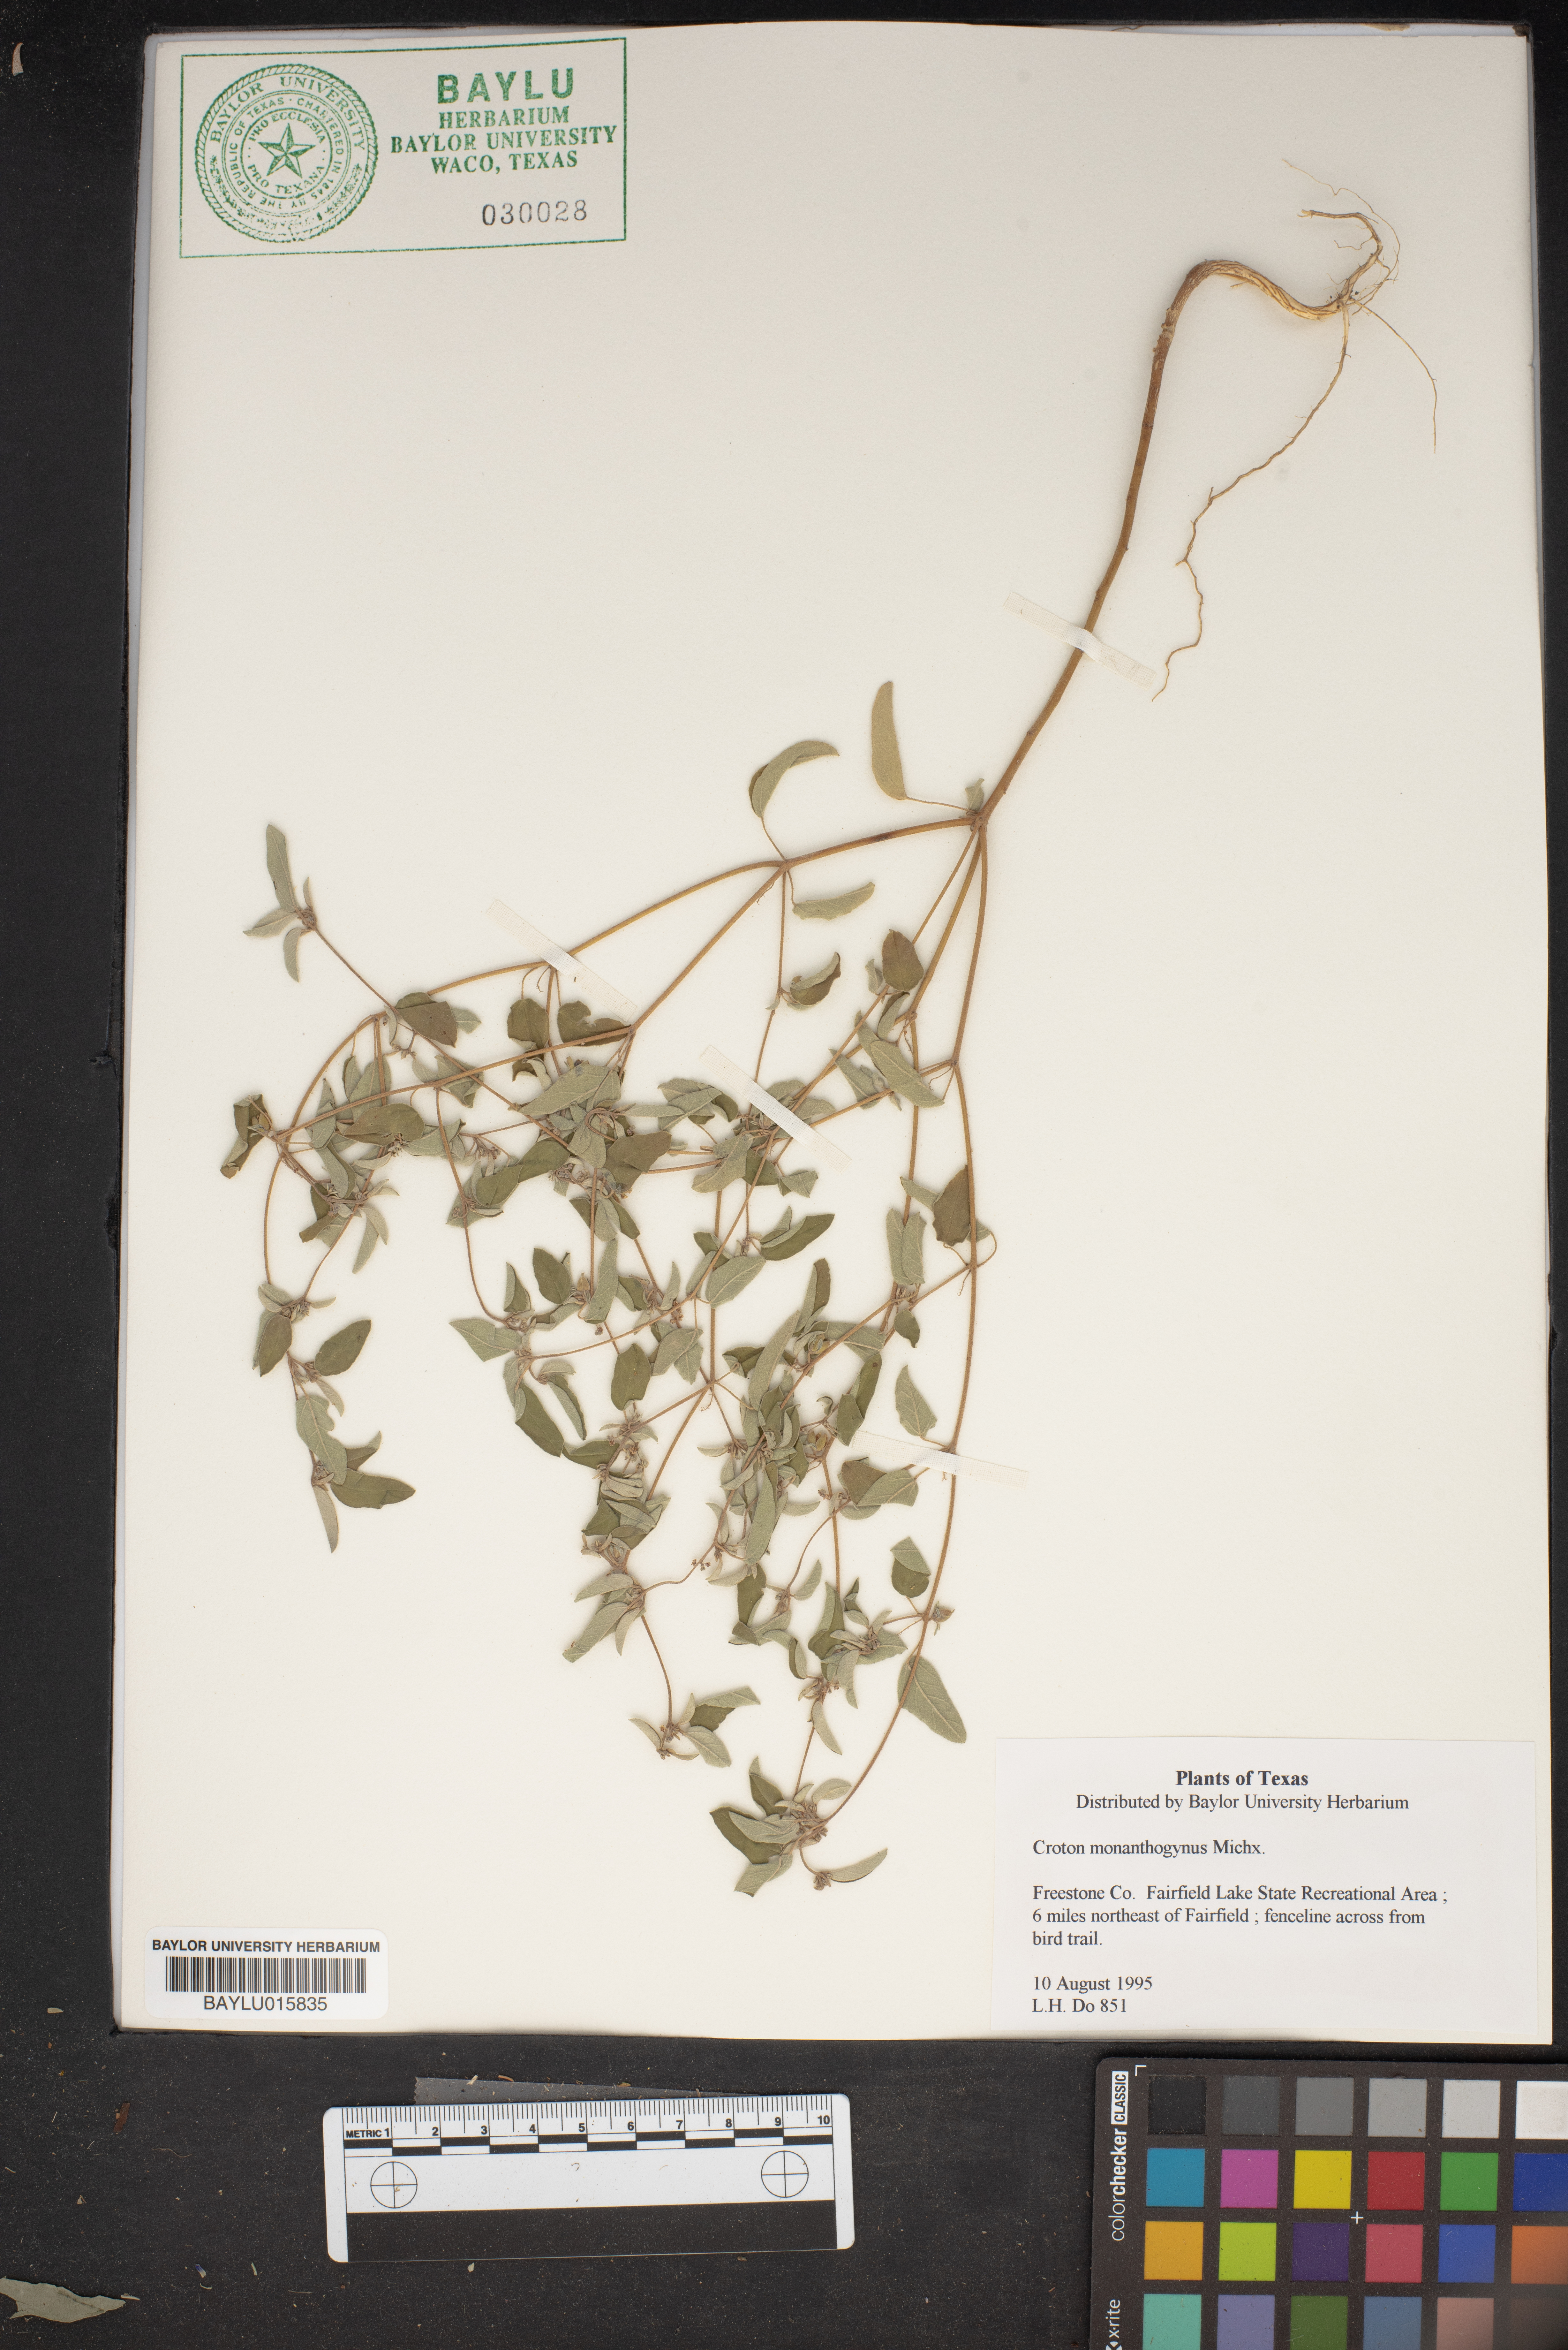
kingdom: Plantae
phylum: Tracheophyta
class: Magnoliopsida
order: Malpighiales
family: Euphorbiaceae
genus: Croton
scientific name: Croton monanthogynus
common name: One-seed croton
